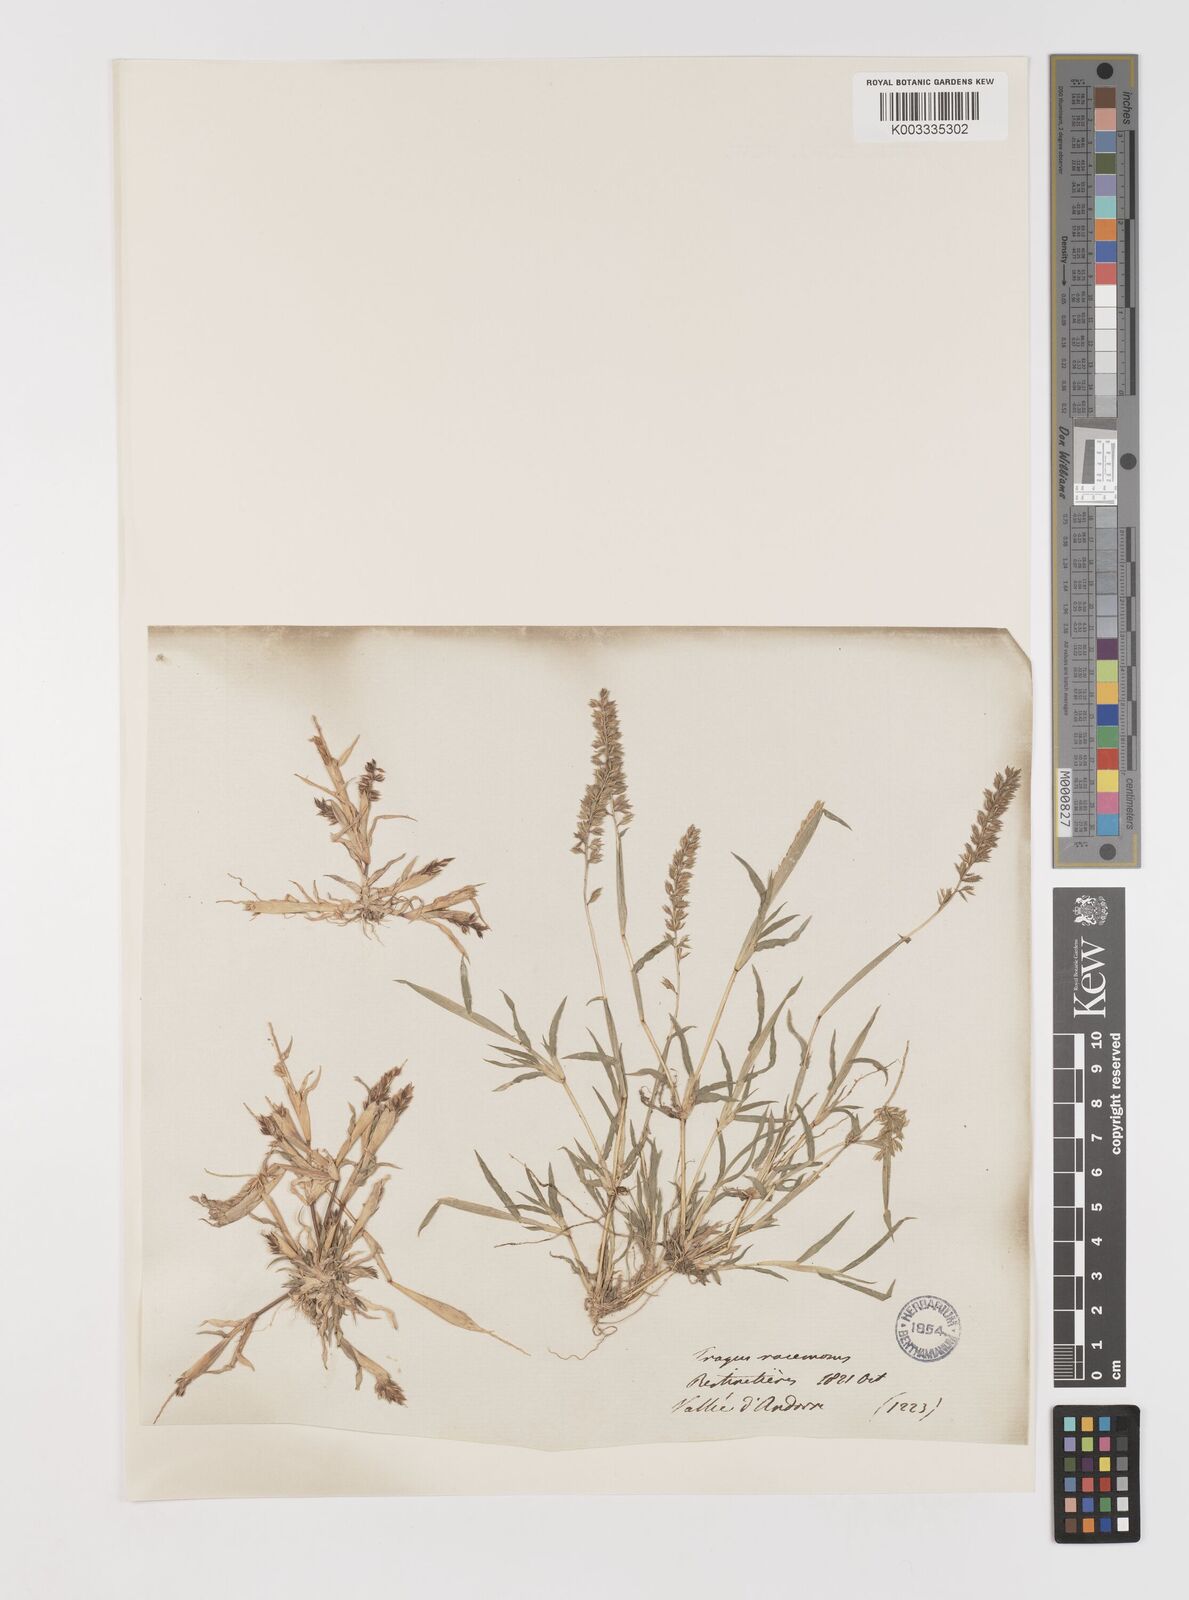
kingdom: Plantae
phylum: Tracheophyta
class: Liliopsida
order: Poales
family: Poaceae
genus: Tragus
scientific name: Tragus racemosus
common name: European bur-grass
